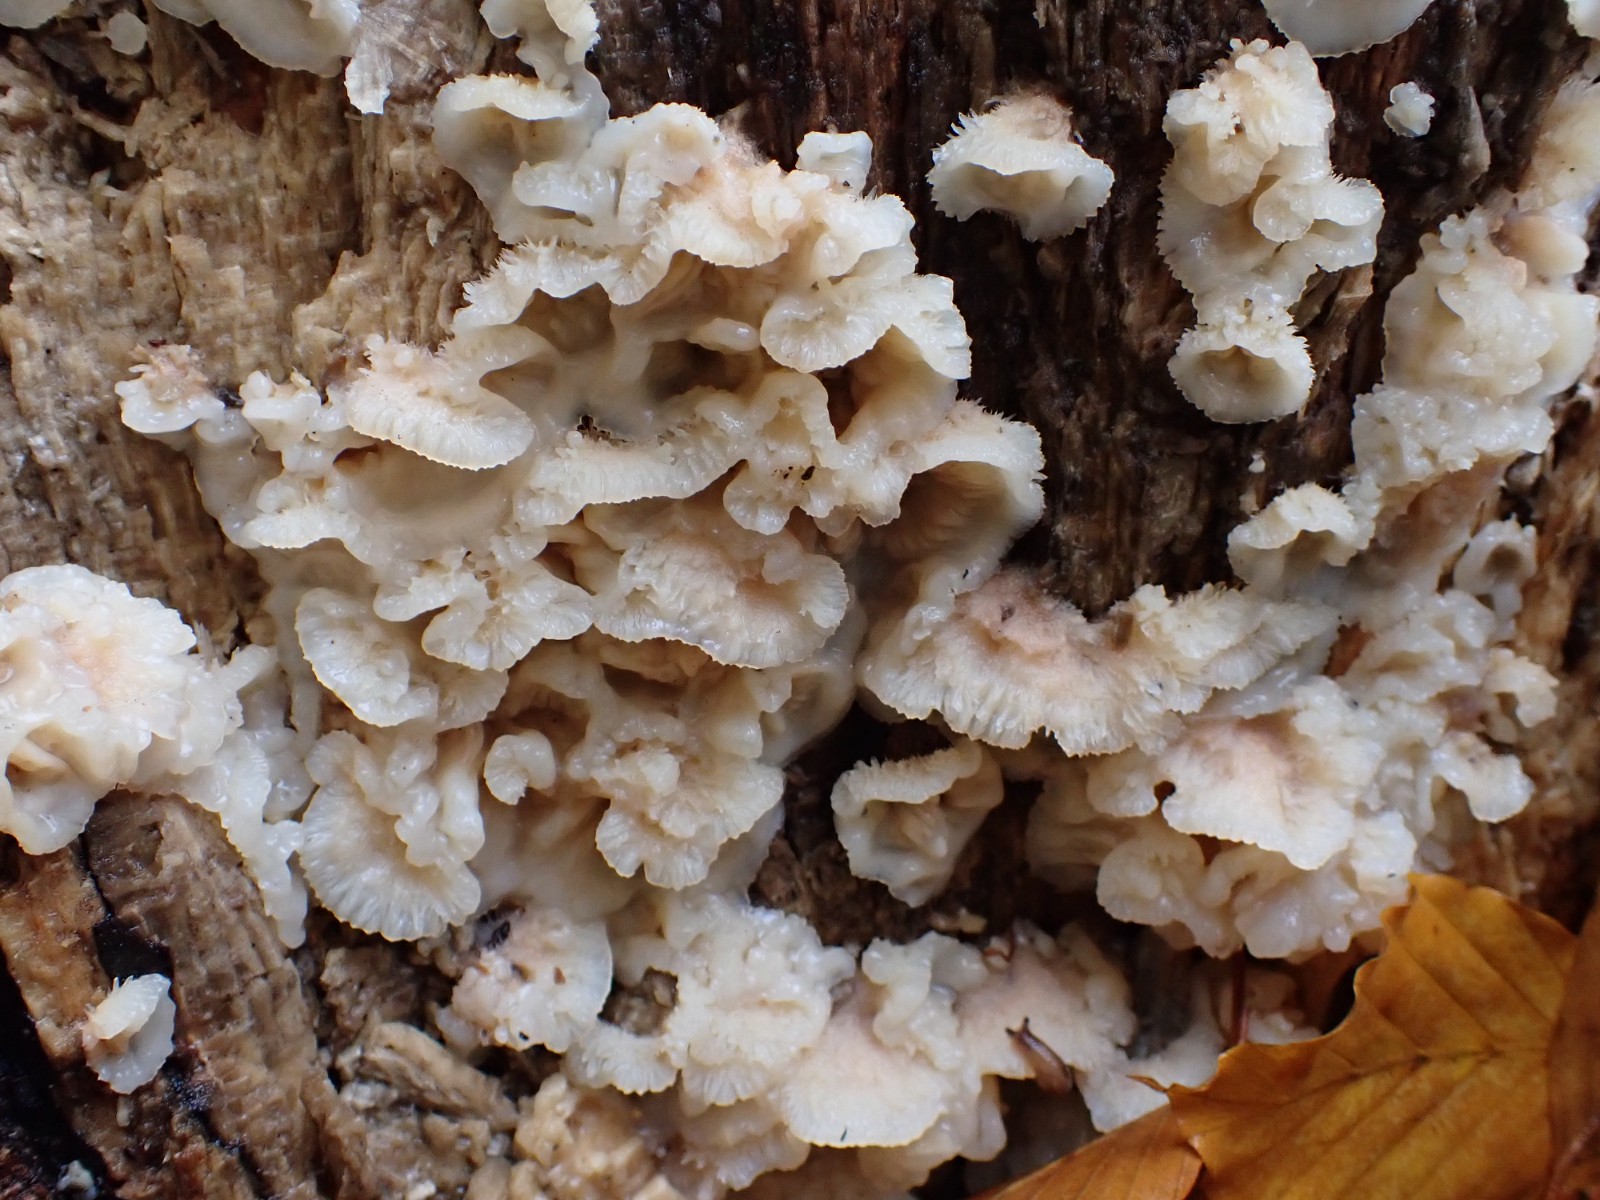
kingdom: Fungi
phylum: Basidiomycota
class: Agaricomycetes
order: Polyporales
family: Meruliaceae
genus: Phlebia
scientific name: Phlebia tremellosa
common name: bævrende åresvamp
